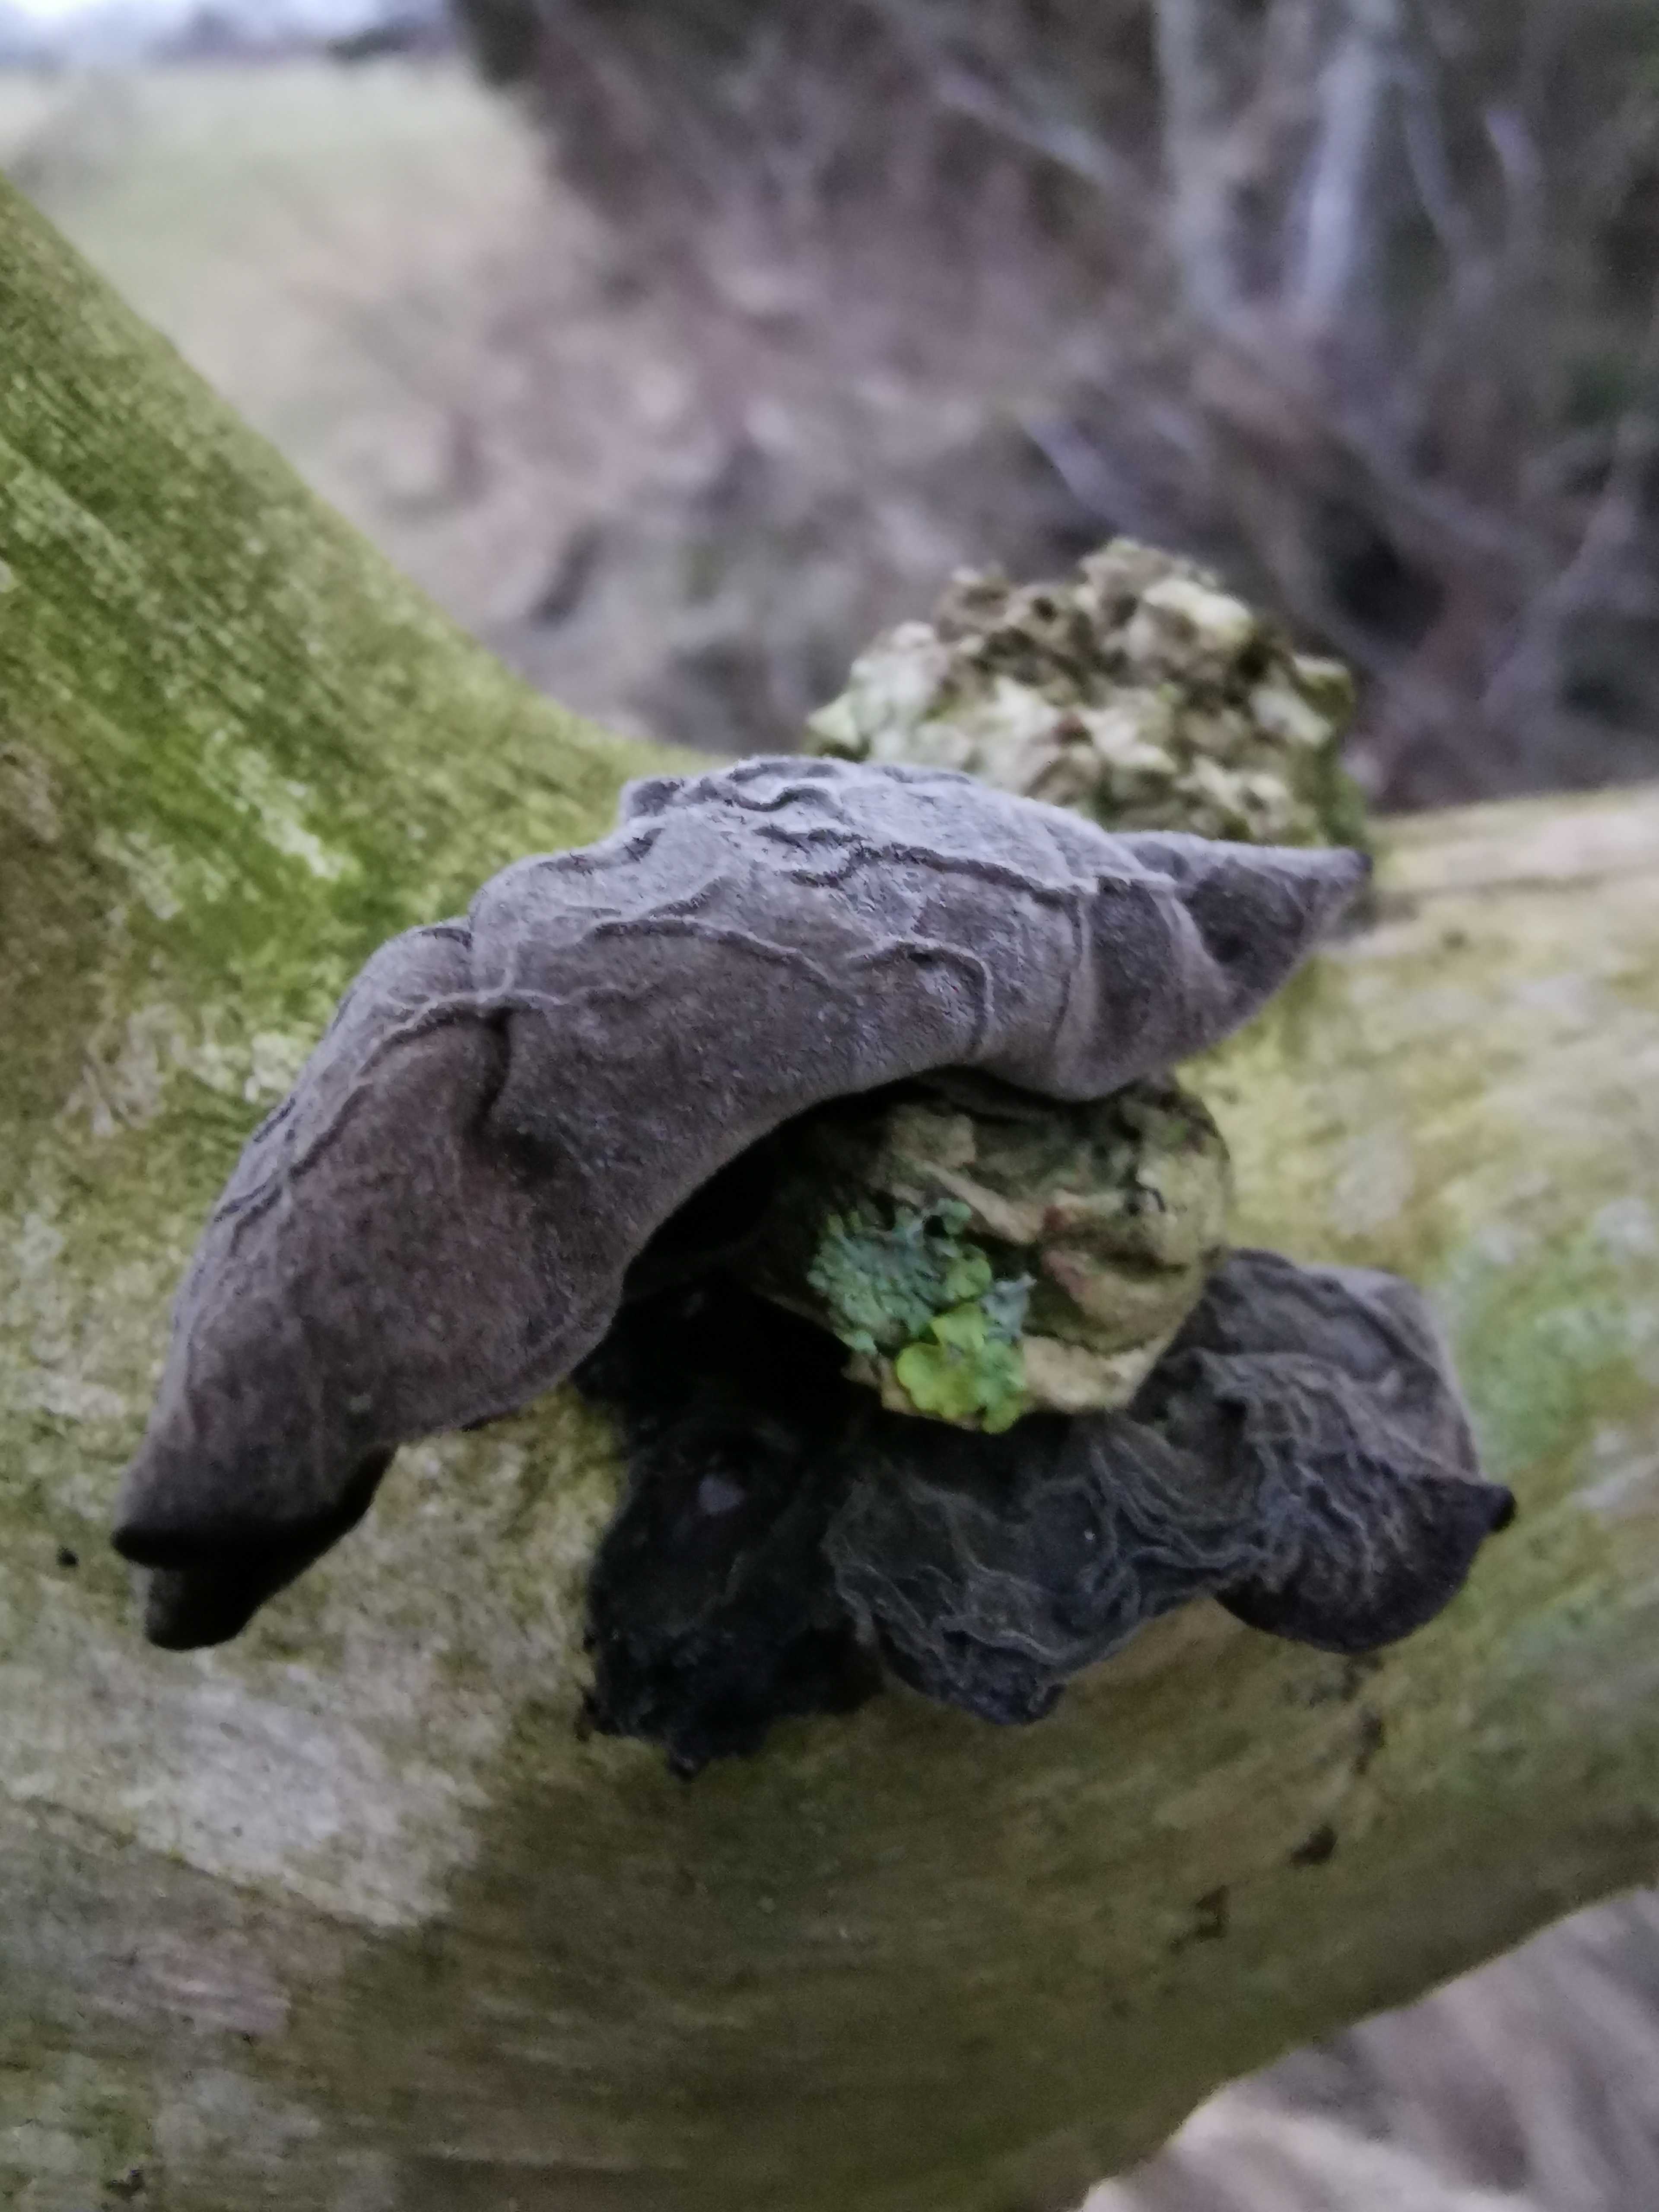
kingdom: Fungi
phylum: Basidiomycota
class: Agaricomycetes
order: Auriculariales
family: Auriculariaceae
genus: Auricularia
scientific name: Auricularia auricula-judae
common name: almindelig judasøre
